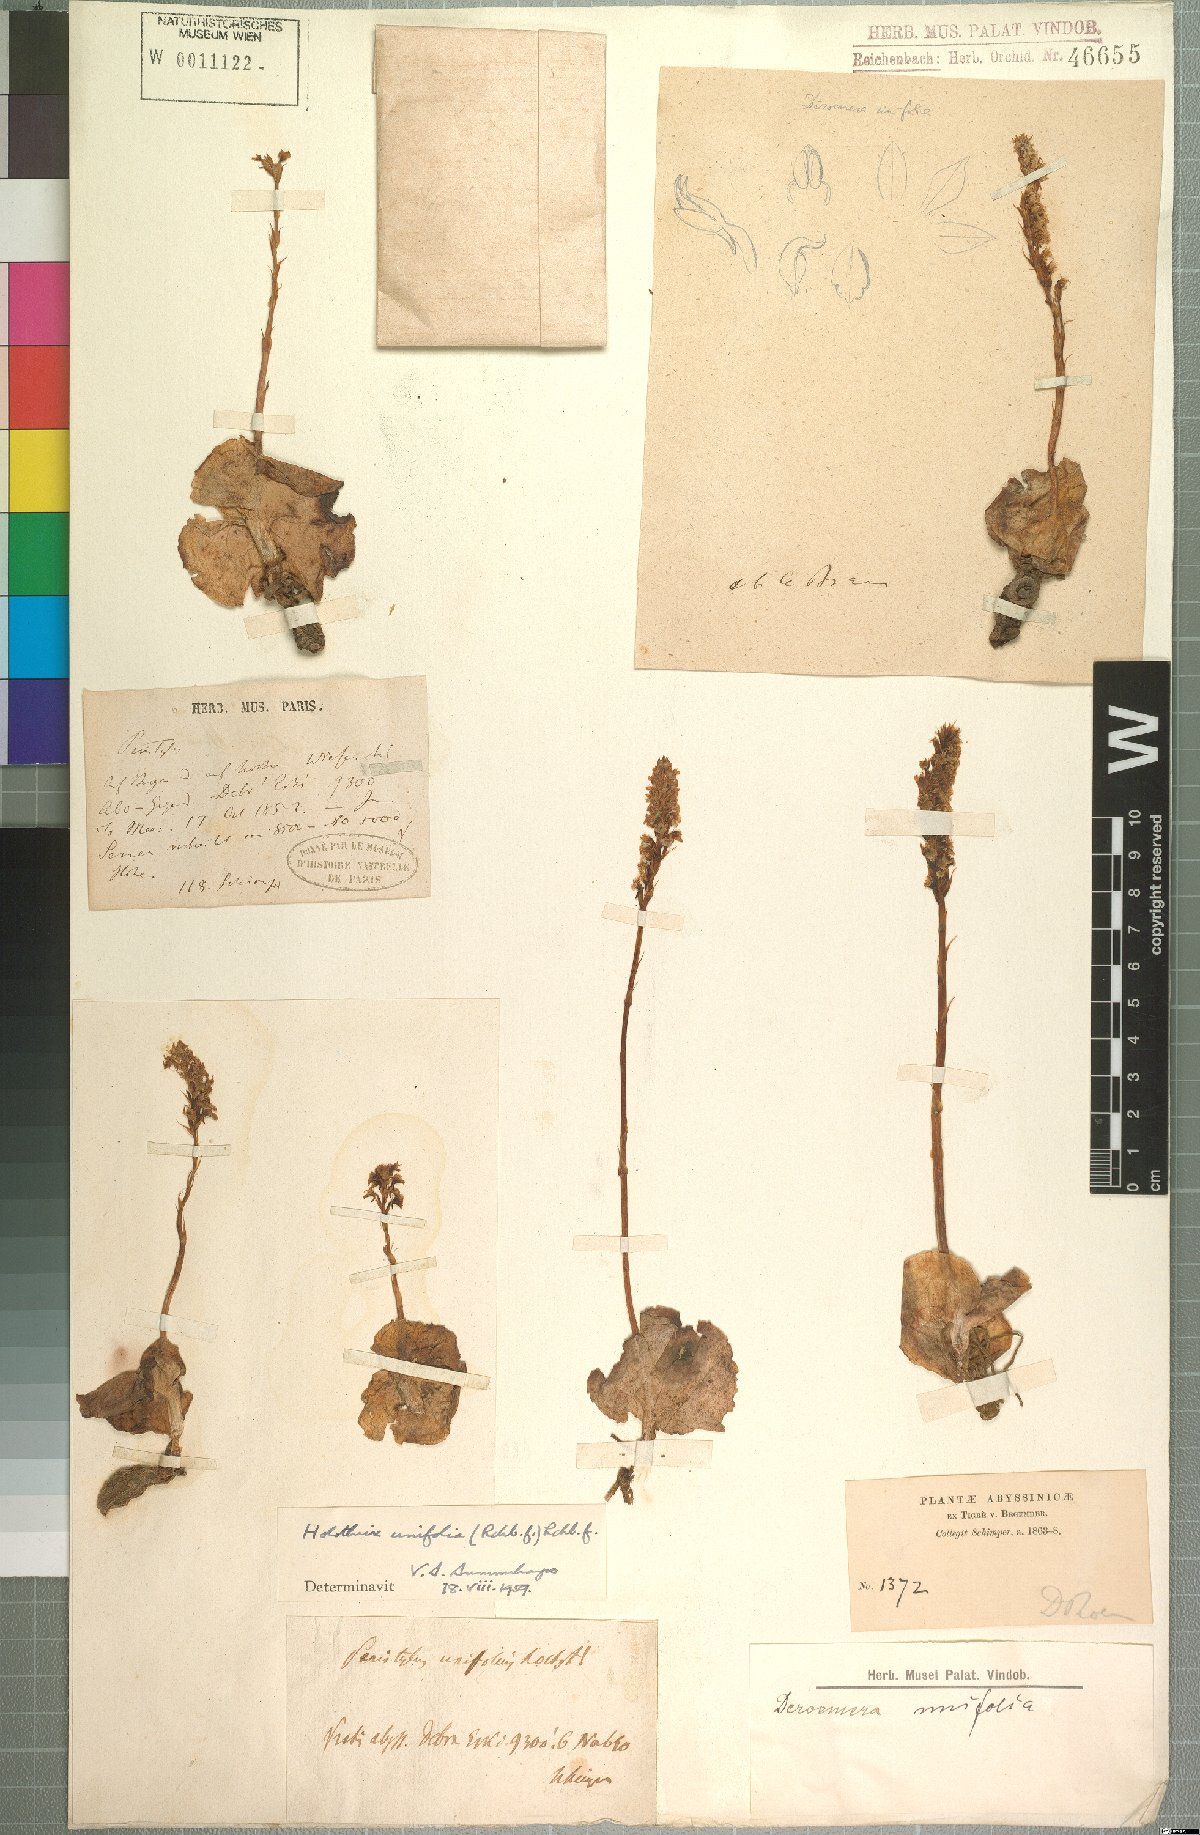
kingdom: Plantae
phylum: Tracheophyta
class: Liliopsida
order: Asparagales
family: Orchidaceae
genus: Holothrix
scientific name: Holothrix montigena
